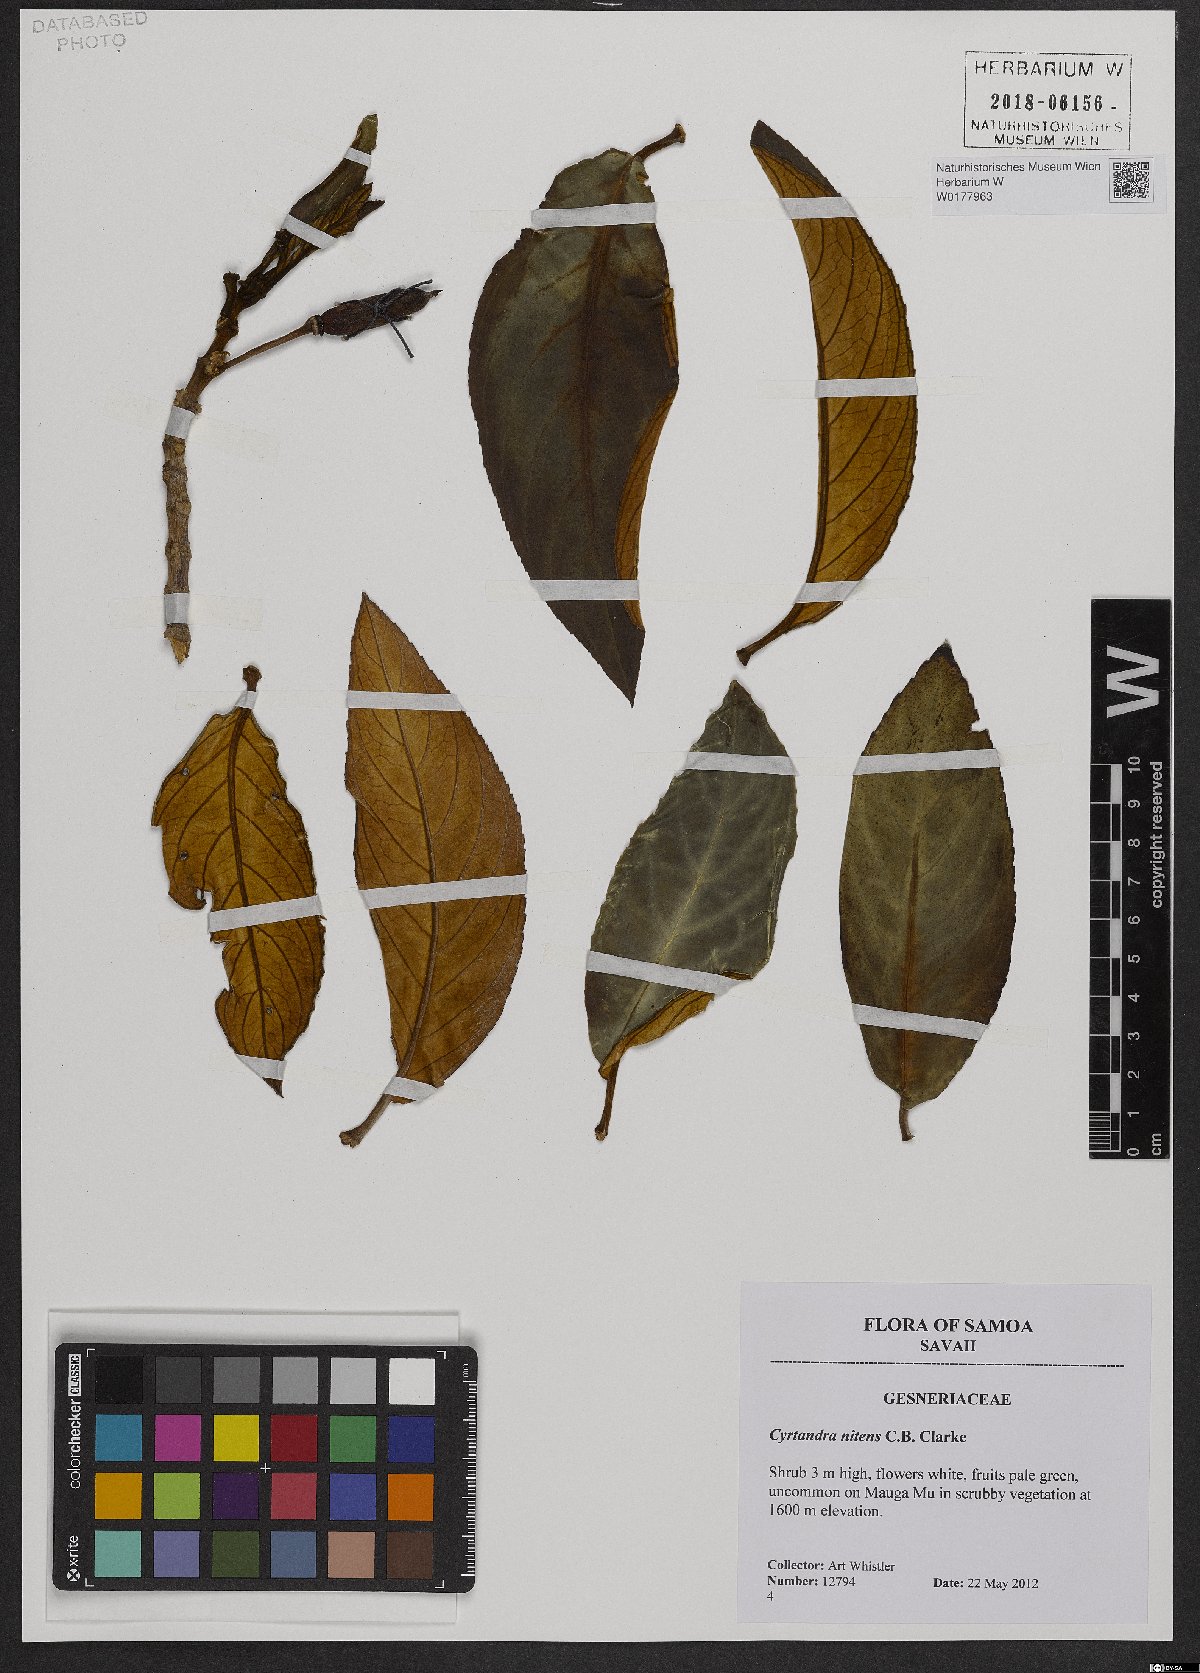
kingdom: Plantae
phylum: Tracheophyta
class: Magnoliopsida
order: Lamiales
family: Gesneriaceae
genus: Cyrtandra
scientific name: Cyrtandra nitens
